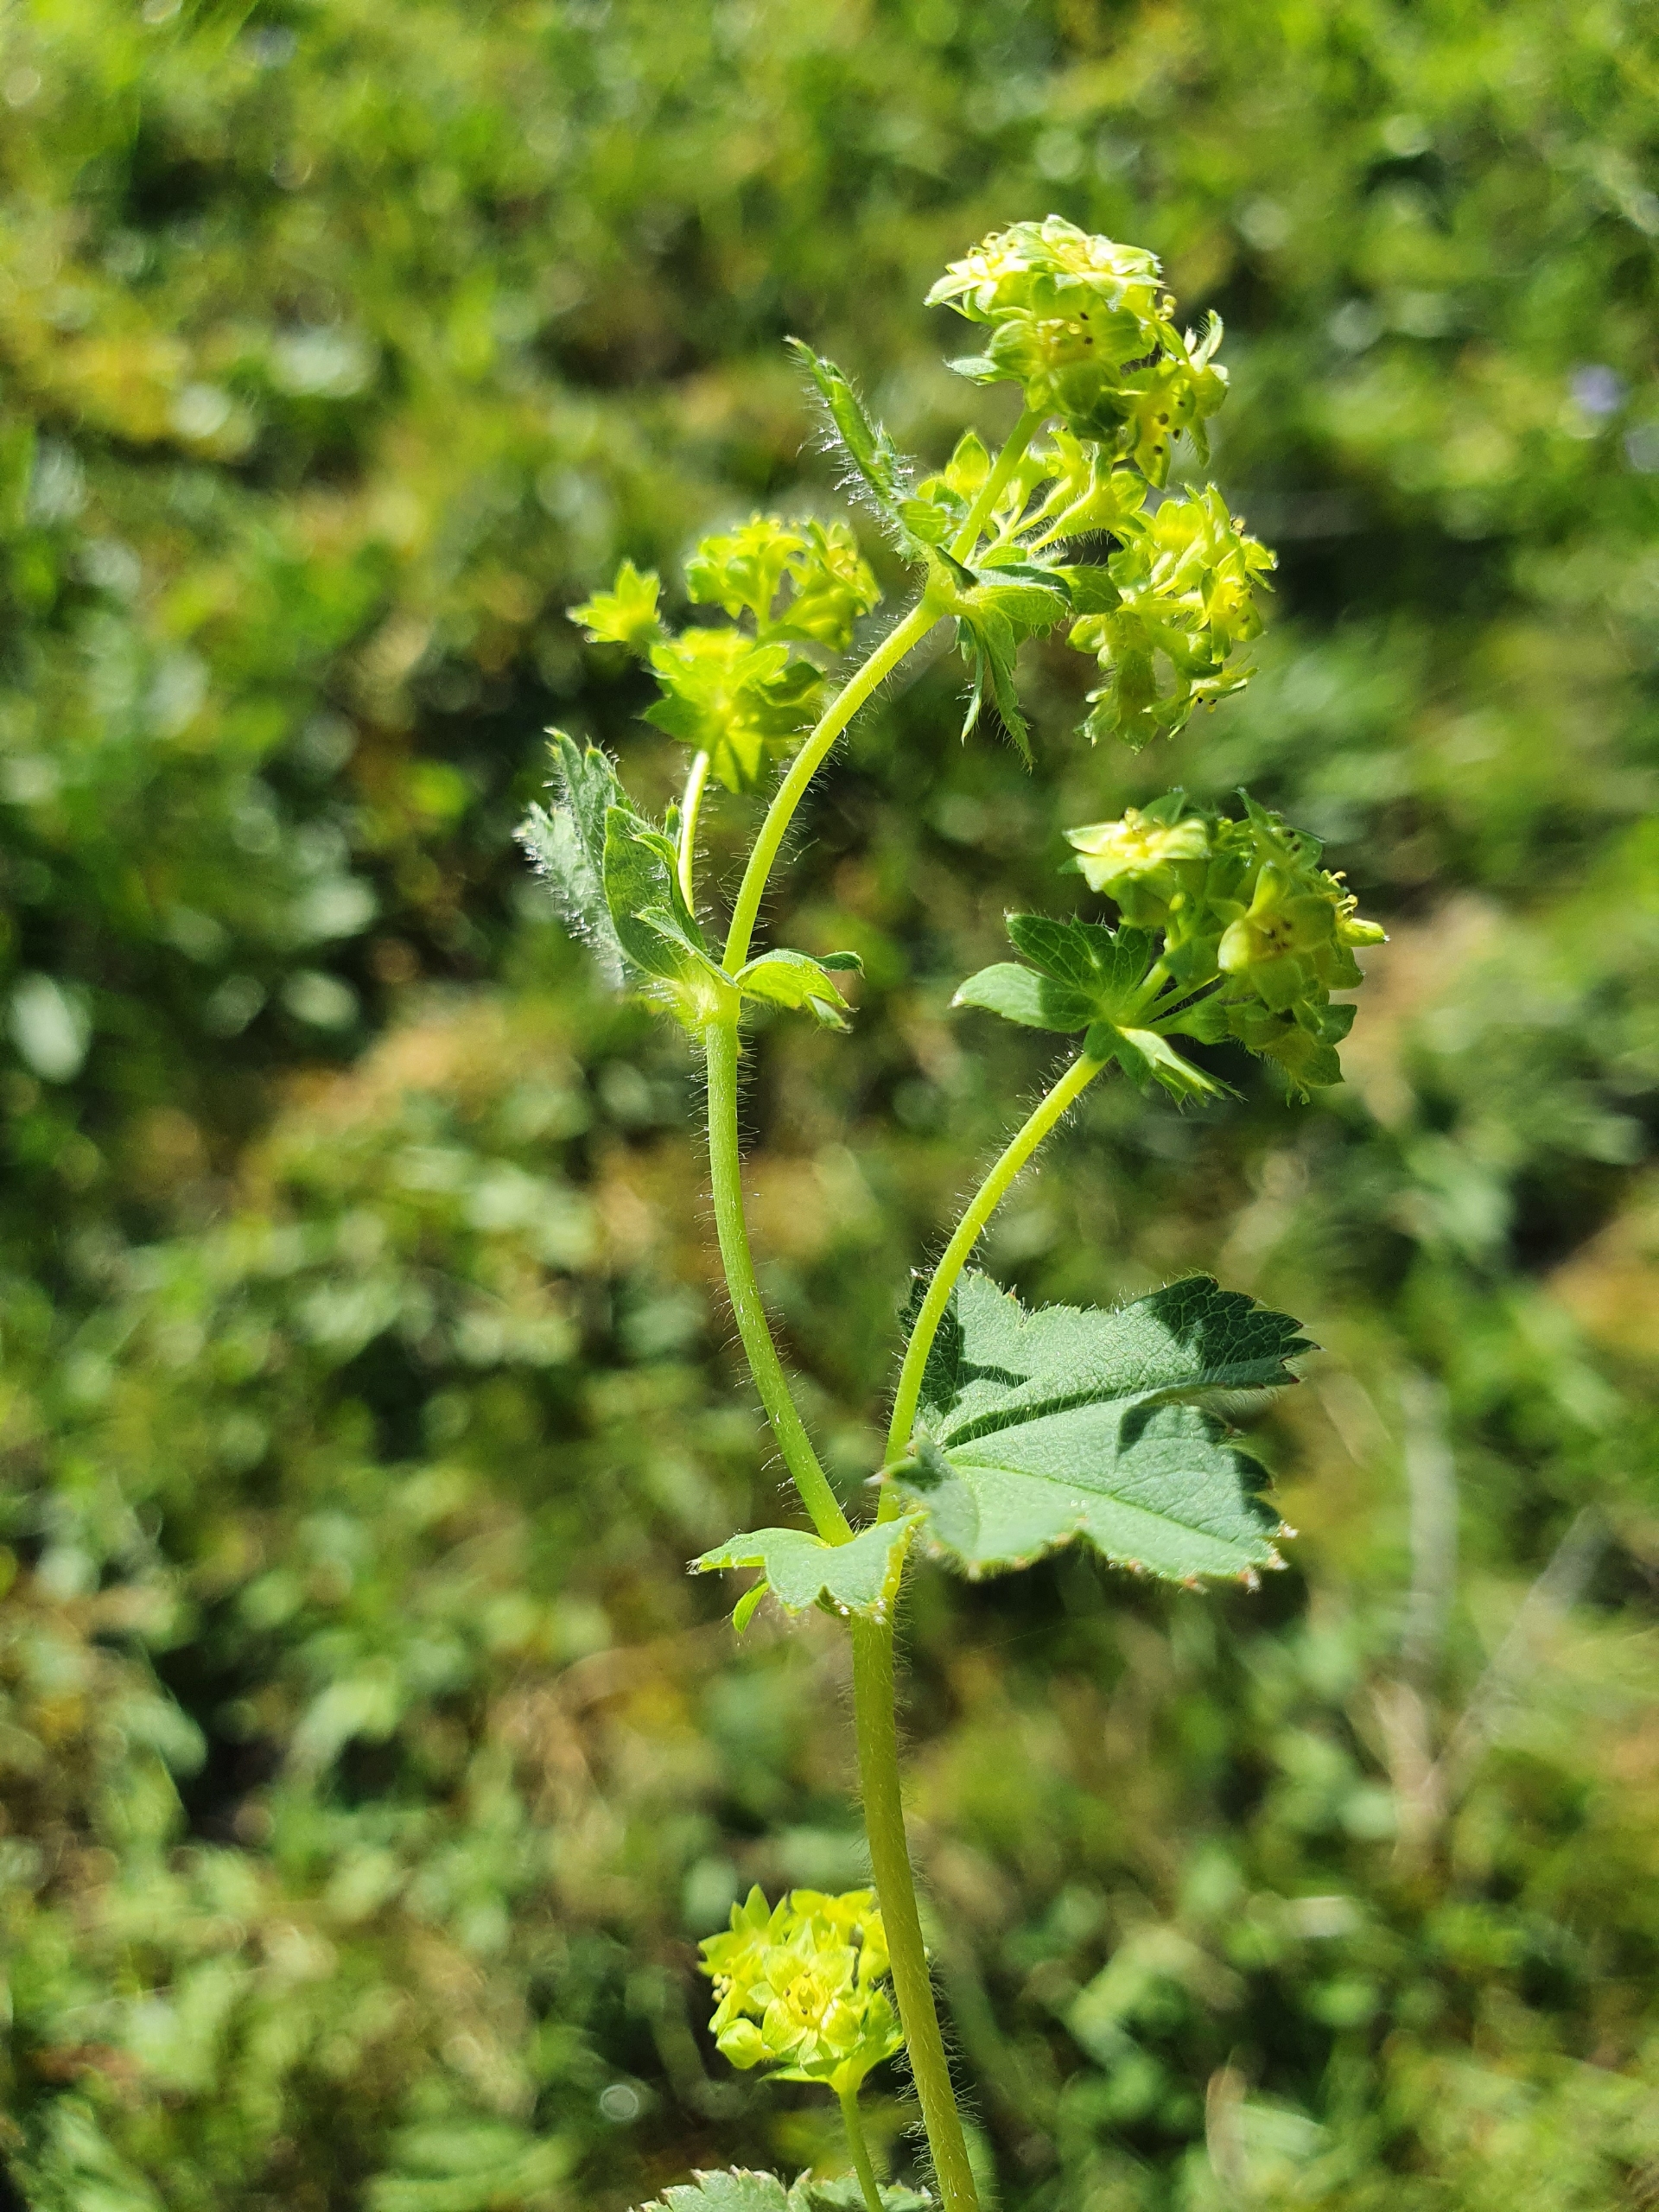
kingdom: Plantae
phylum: Tracheophyta
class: Magnoliopsida
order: Rosales
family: Rosaceae
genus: Alchemilla
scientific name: Alchemilla filicaulis
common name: Håret løvefod
